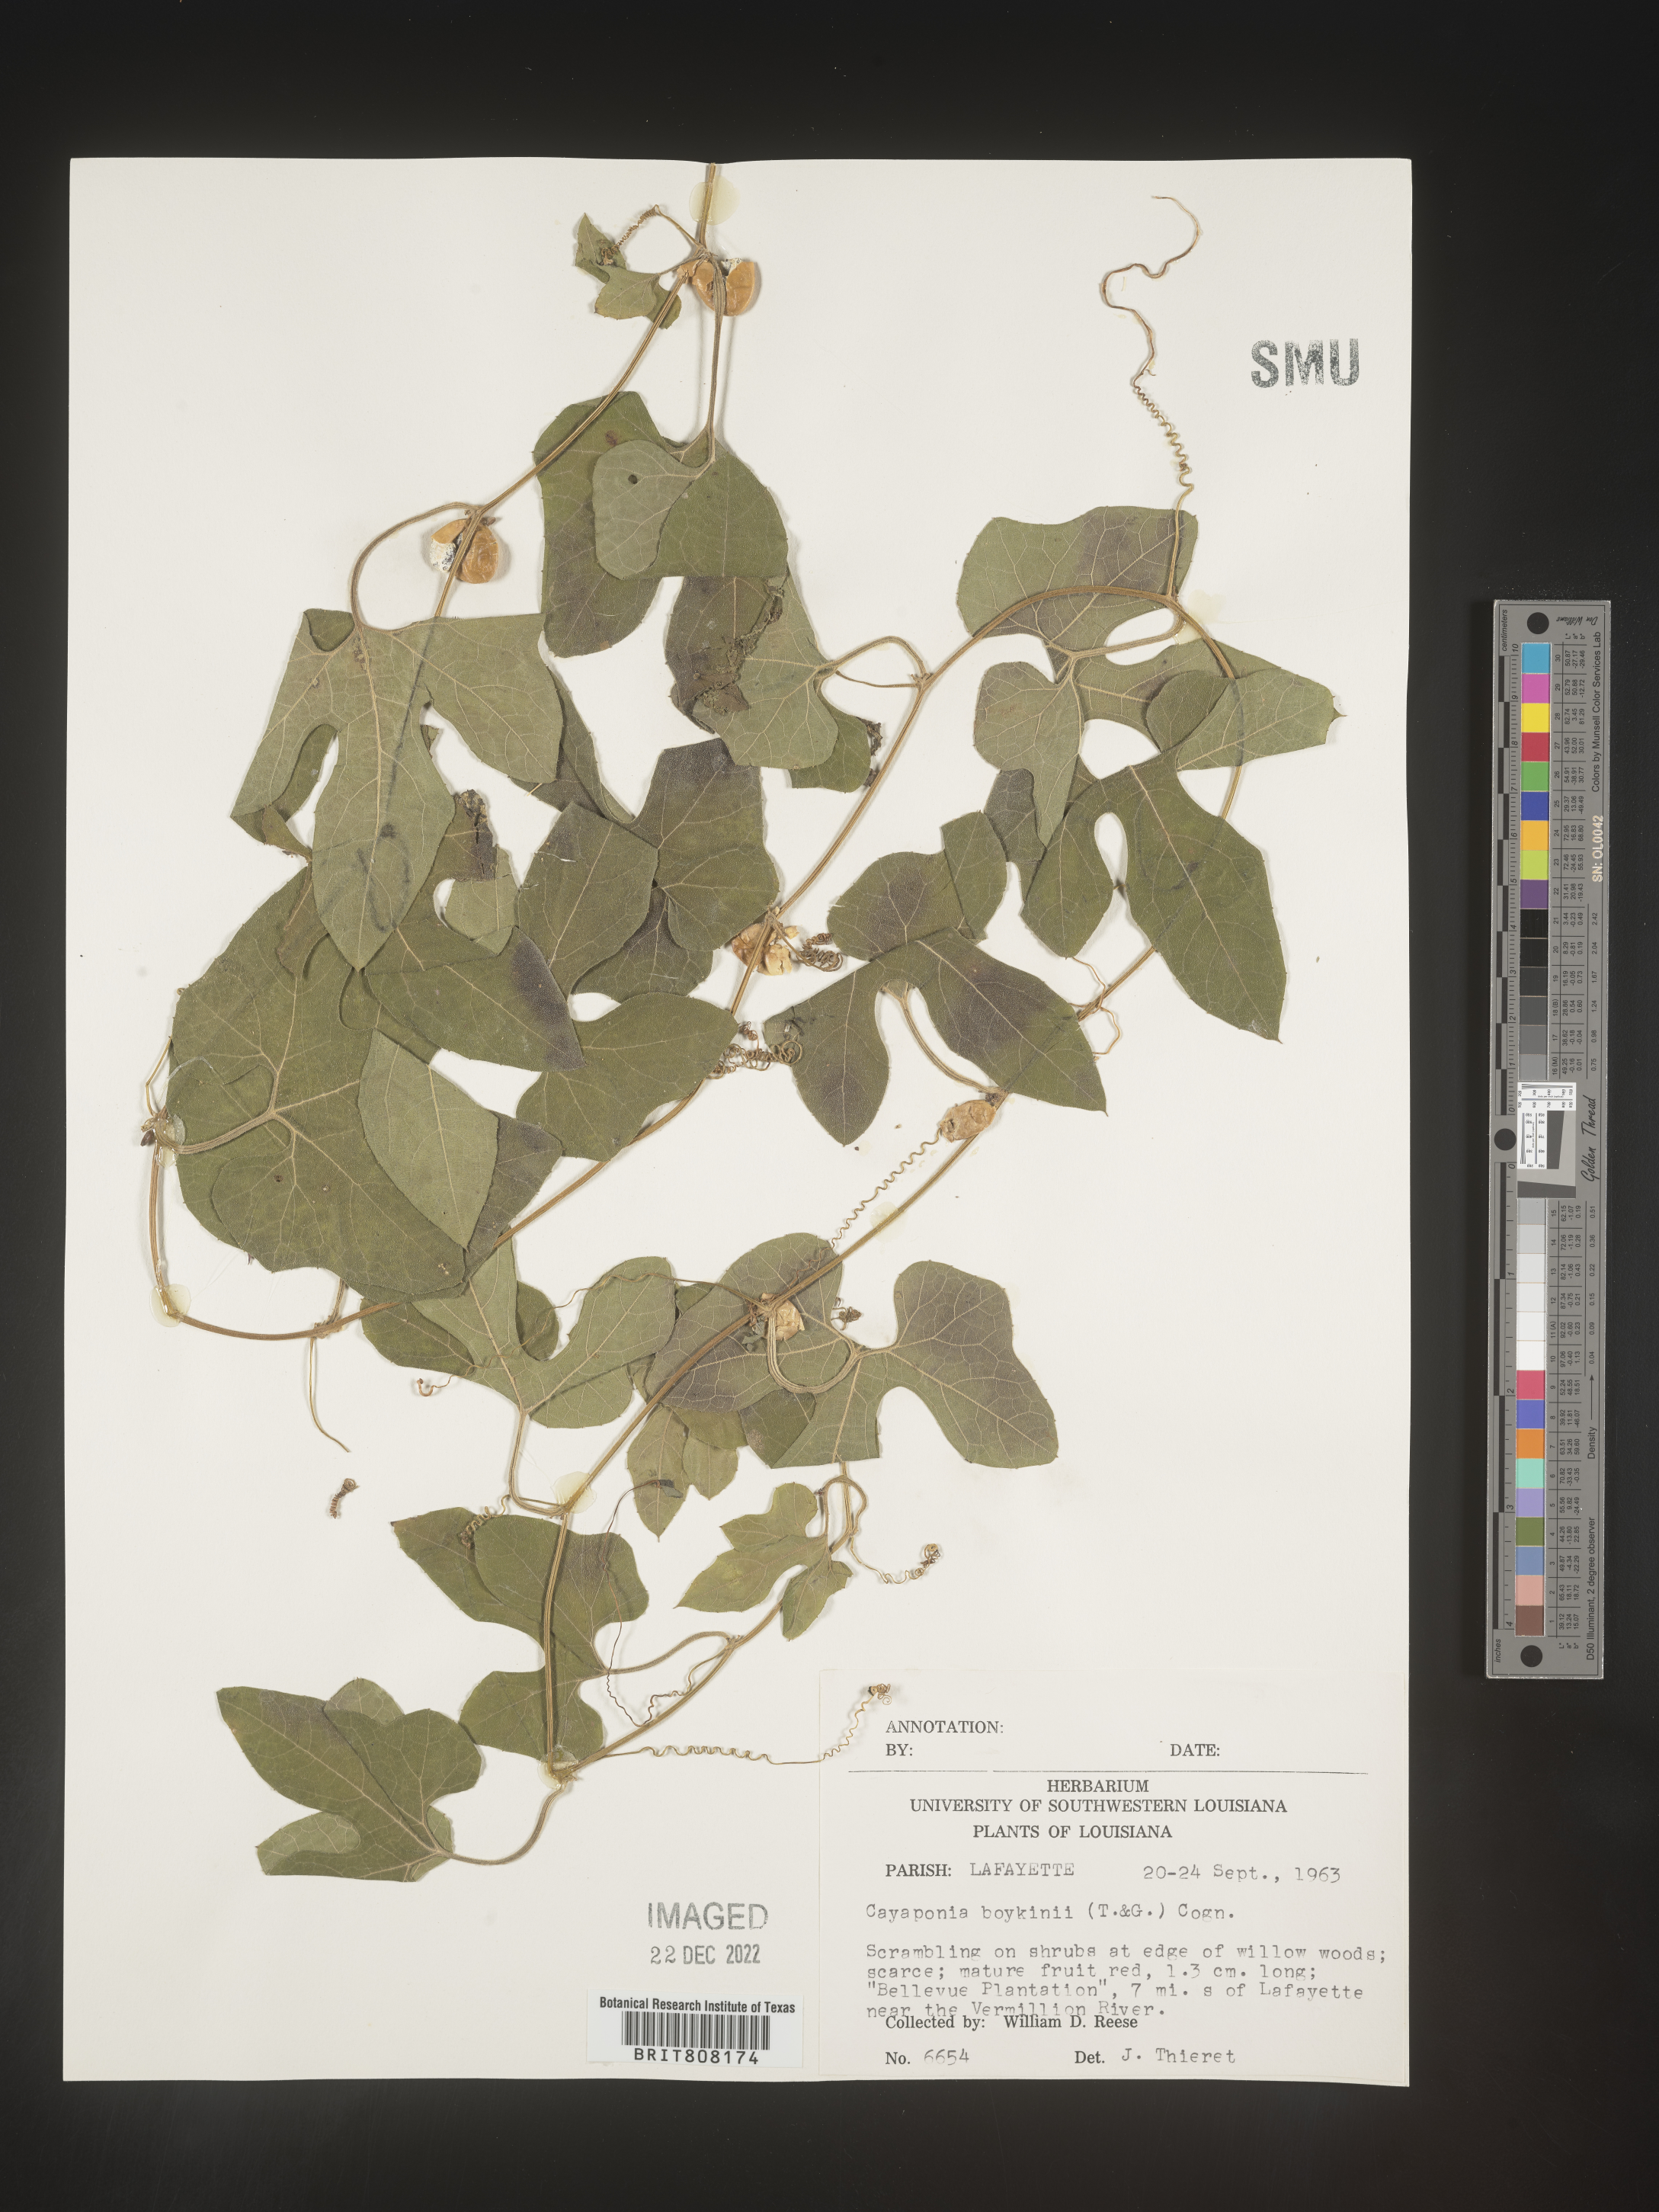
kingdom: Plantae
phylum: Tracheophyta
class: Magnoliopsida
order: Cucurbitales
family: Cucurbitaceae
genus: Cayaponia
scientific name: Cayaponia
